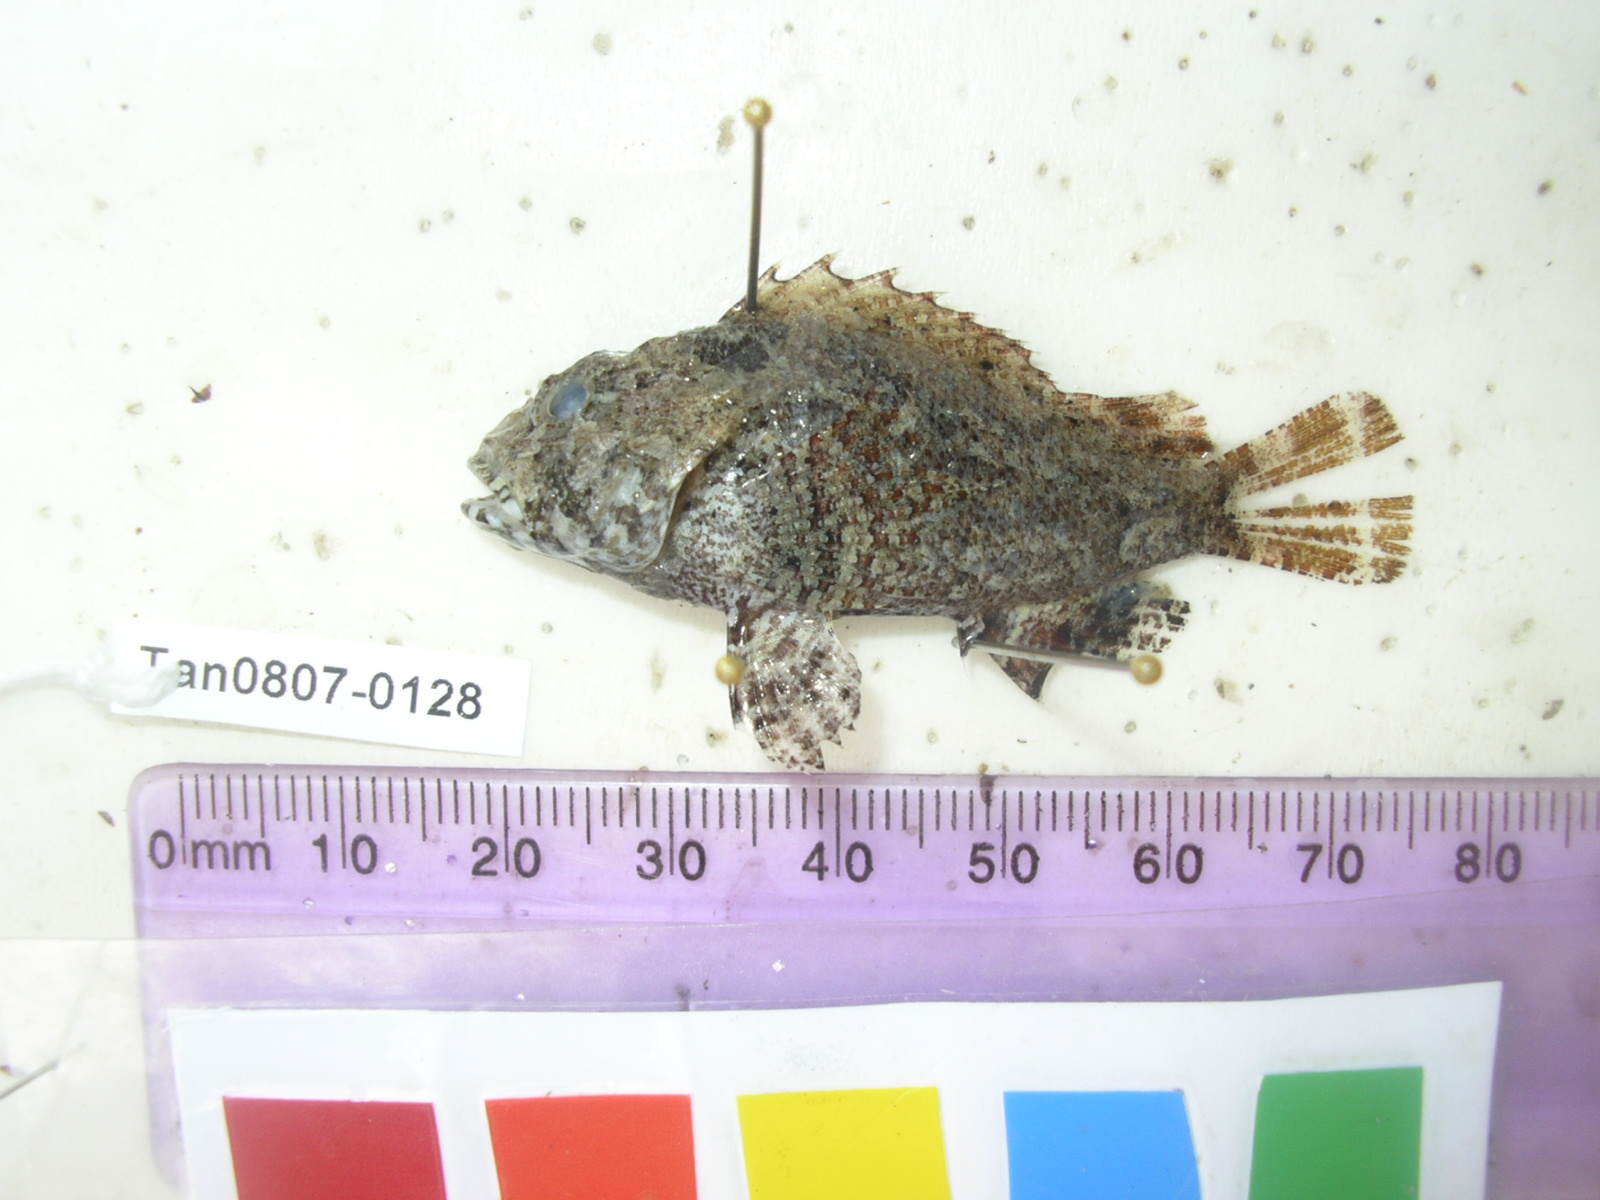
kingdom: Animalia
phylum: Chordata
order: Scorpaeniformes
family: Scorpaenidae
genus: Sebastapistes
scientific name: Sebastapistes
